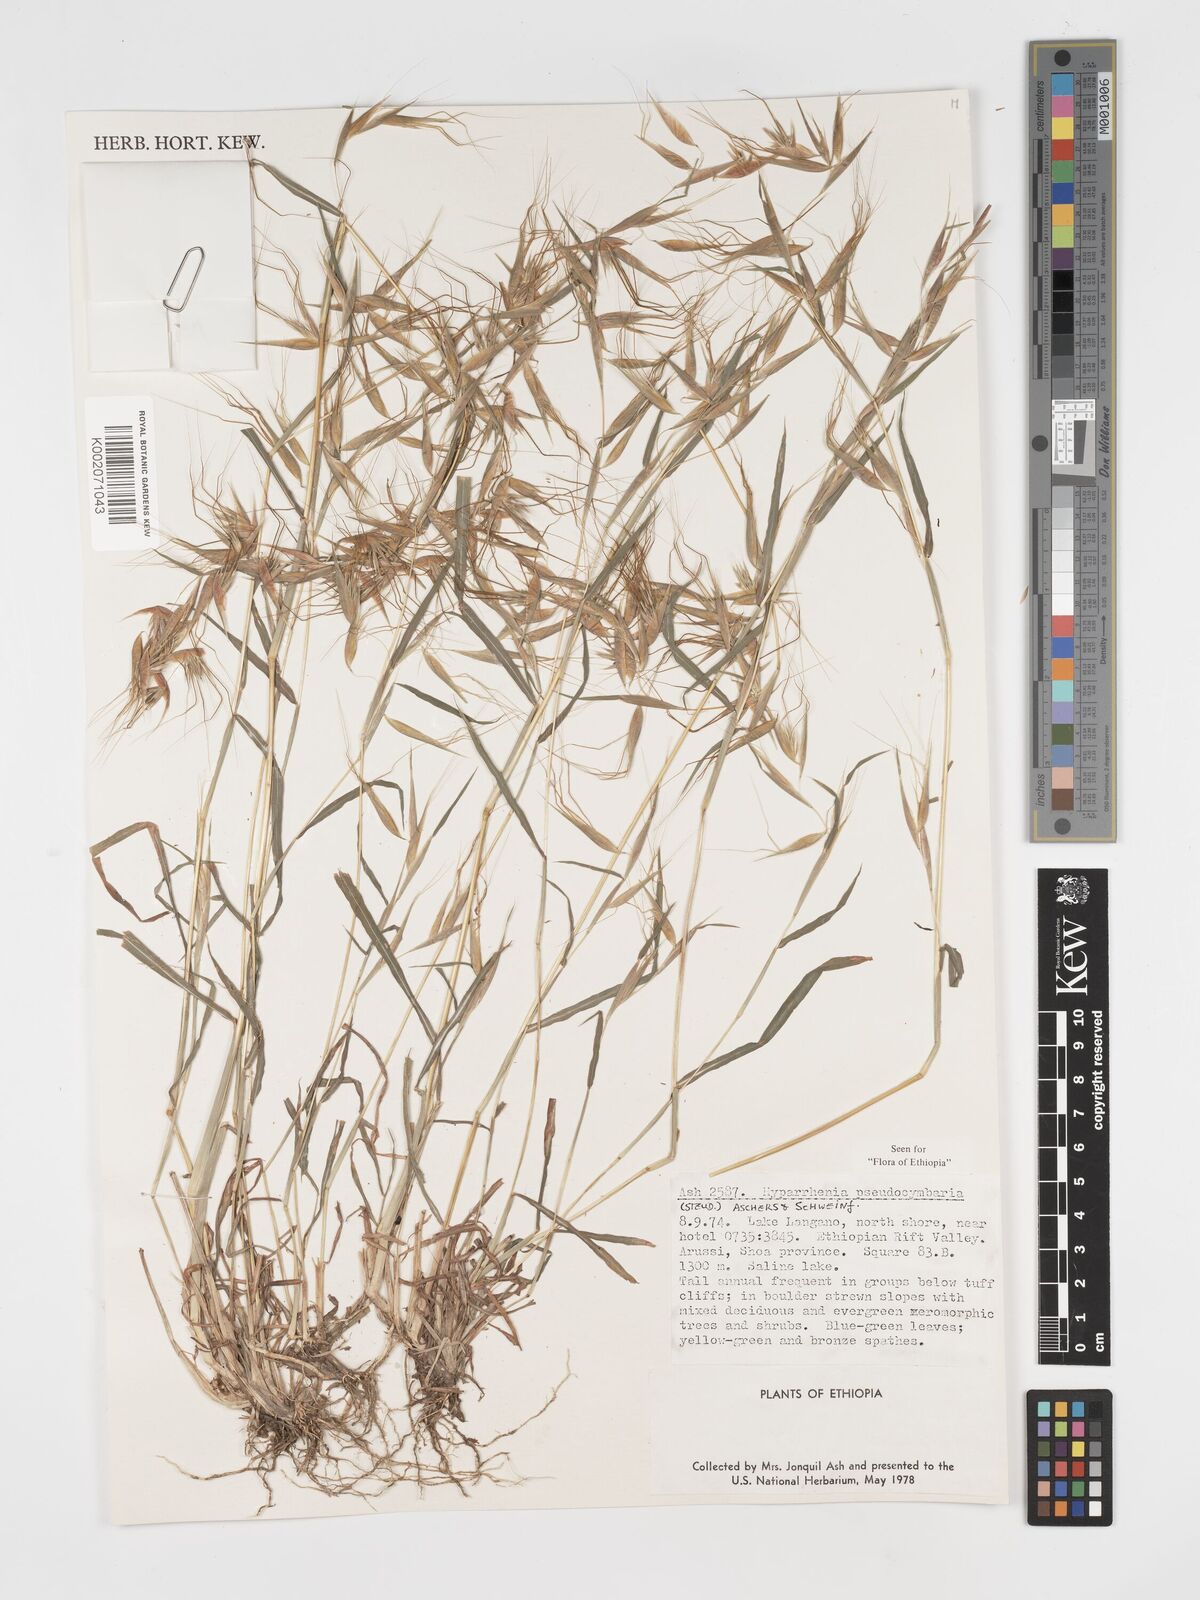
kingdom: Plantae
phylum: Tracheophyta
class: Liliopsida
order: Poales
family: Poaceae
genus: Hyparrhenia
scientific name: Hyparrhenia anthistirioides
